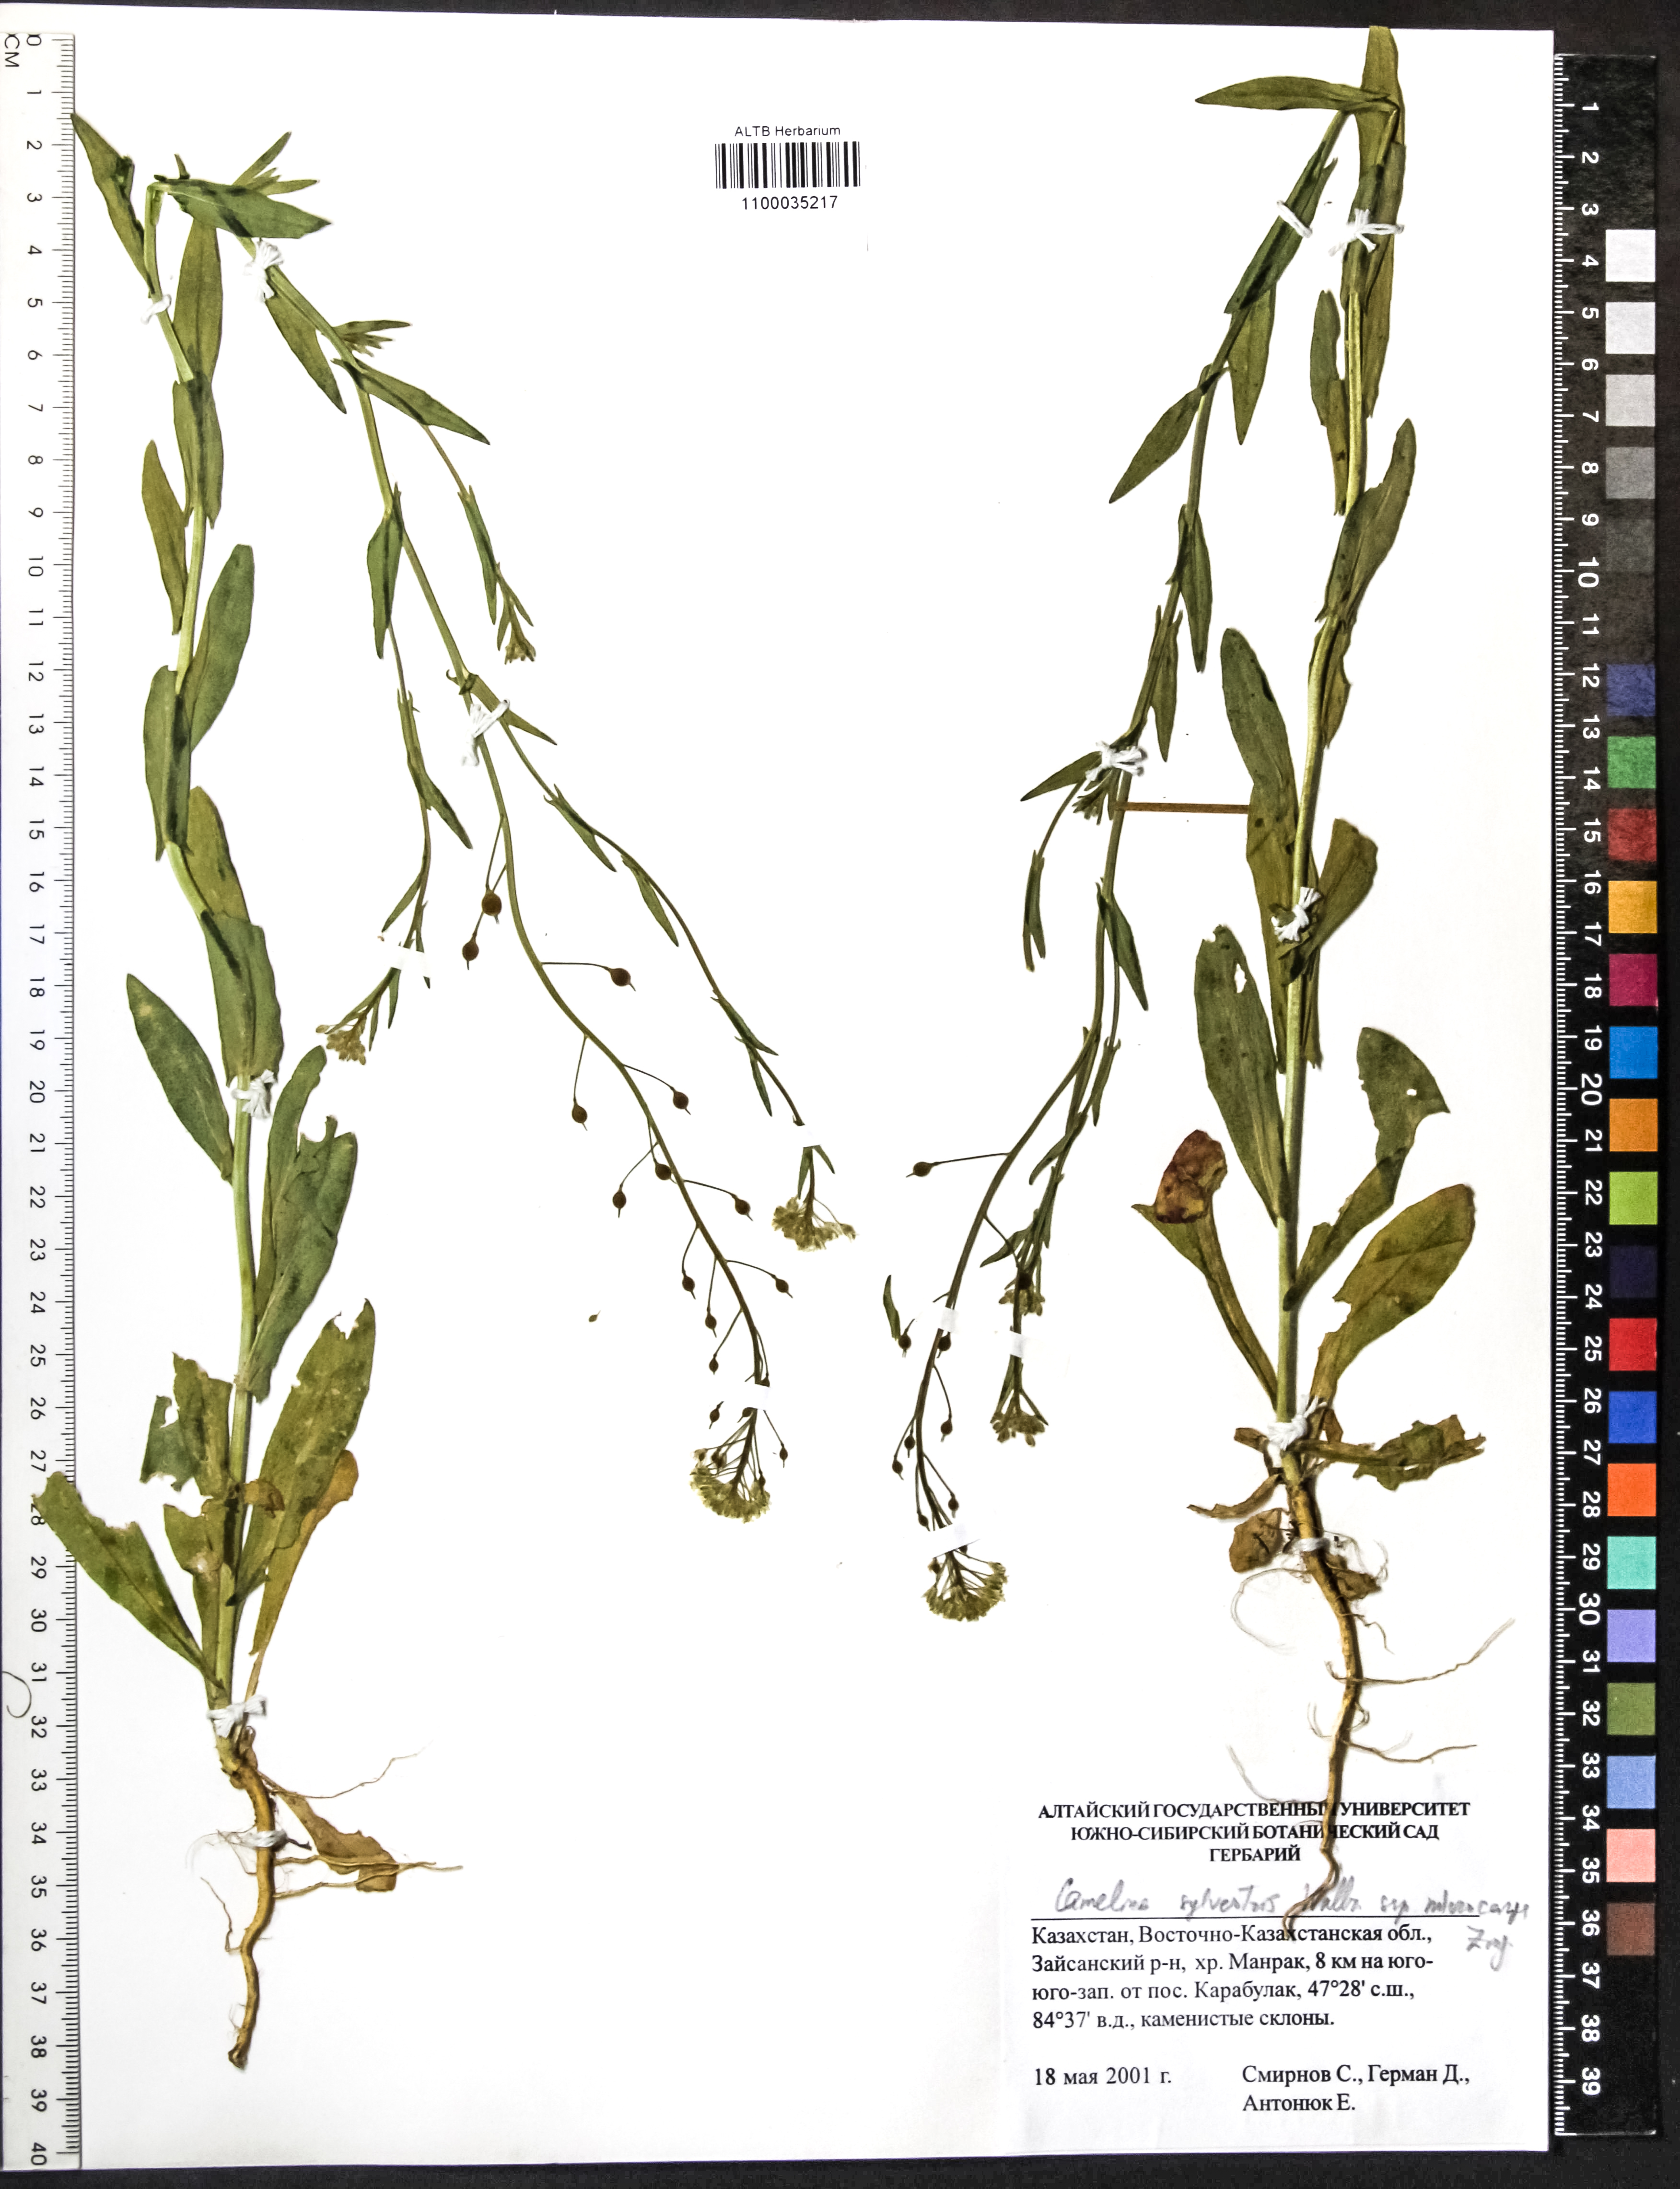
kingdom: Plantae
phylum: Tracheophyta
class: Magnoliopsida
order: Brassicales
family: Brassicaceae
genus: Camelina
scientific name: Camelina microcarpa
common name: Lesser gold-of-pleasure
